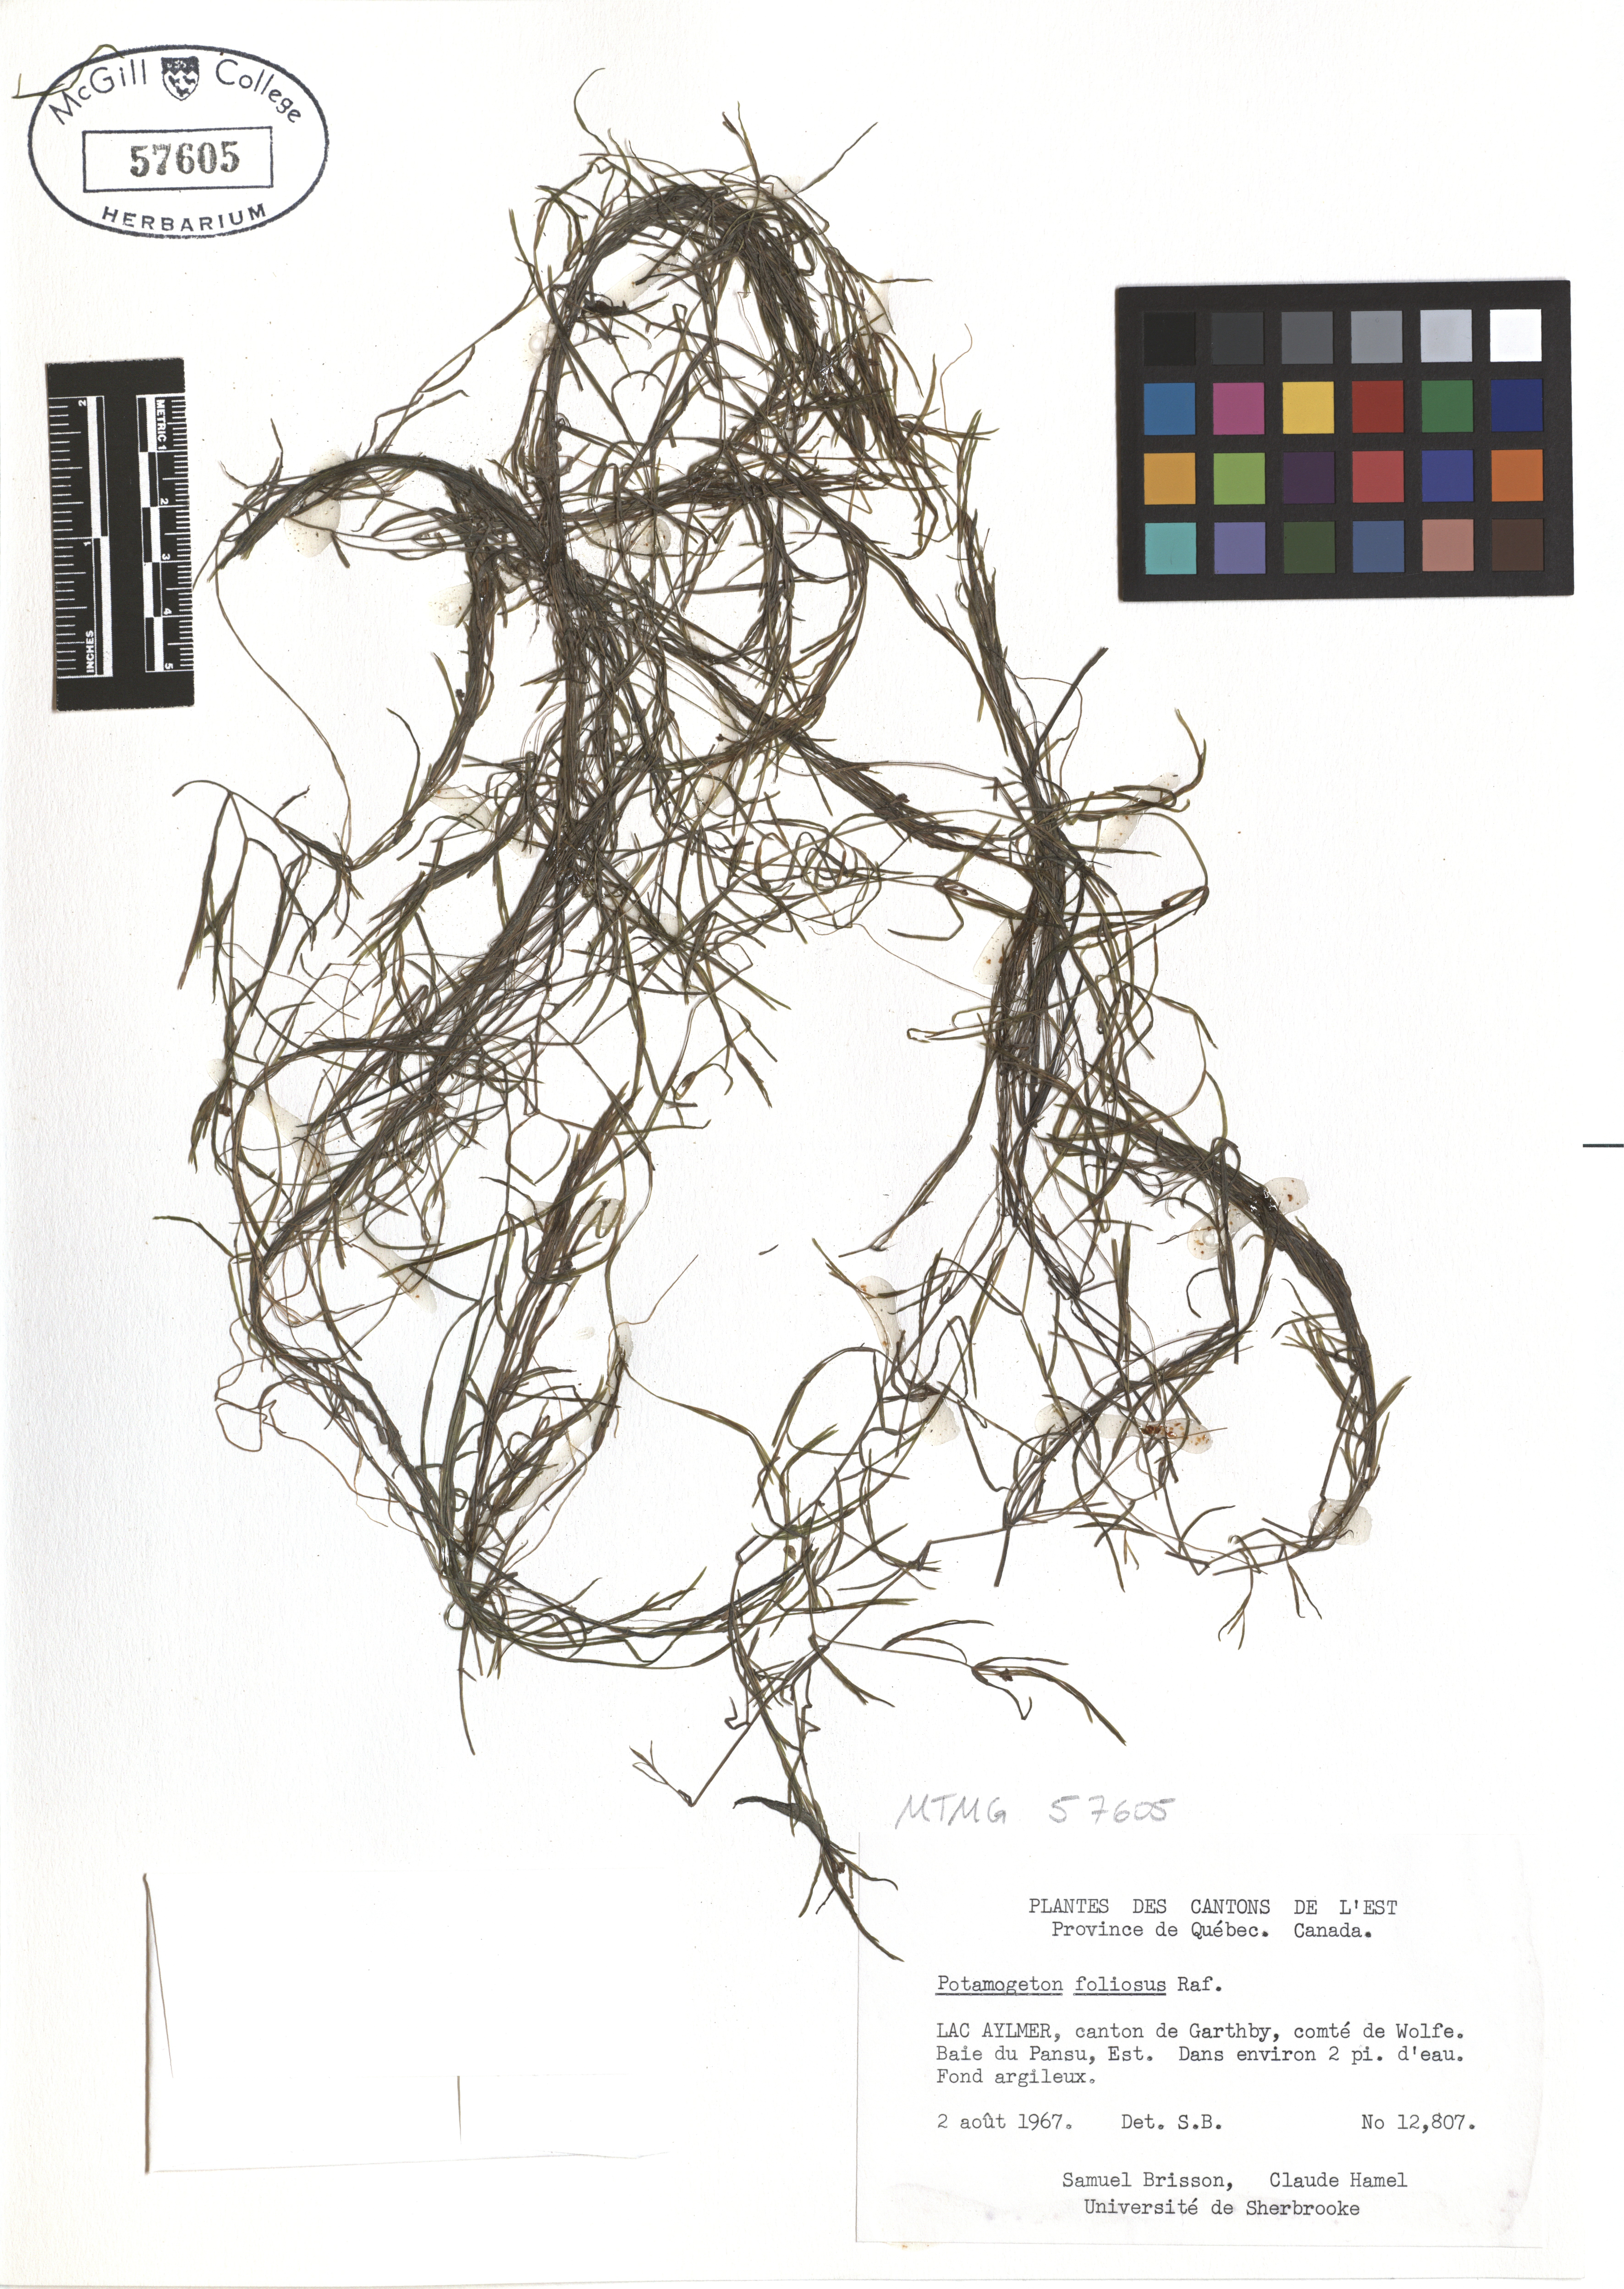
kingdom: Plantae
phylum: Tracheophyta
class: Liliopsida
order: Alismatales
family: Potamogetonaceae
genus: Potamogeton
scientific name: Potamogeton foliosus
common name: Leafy pondweed
